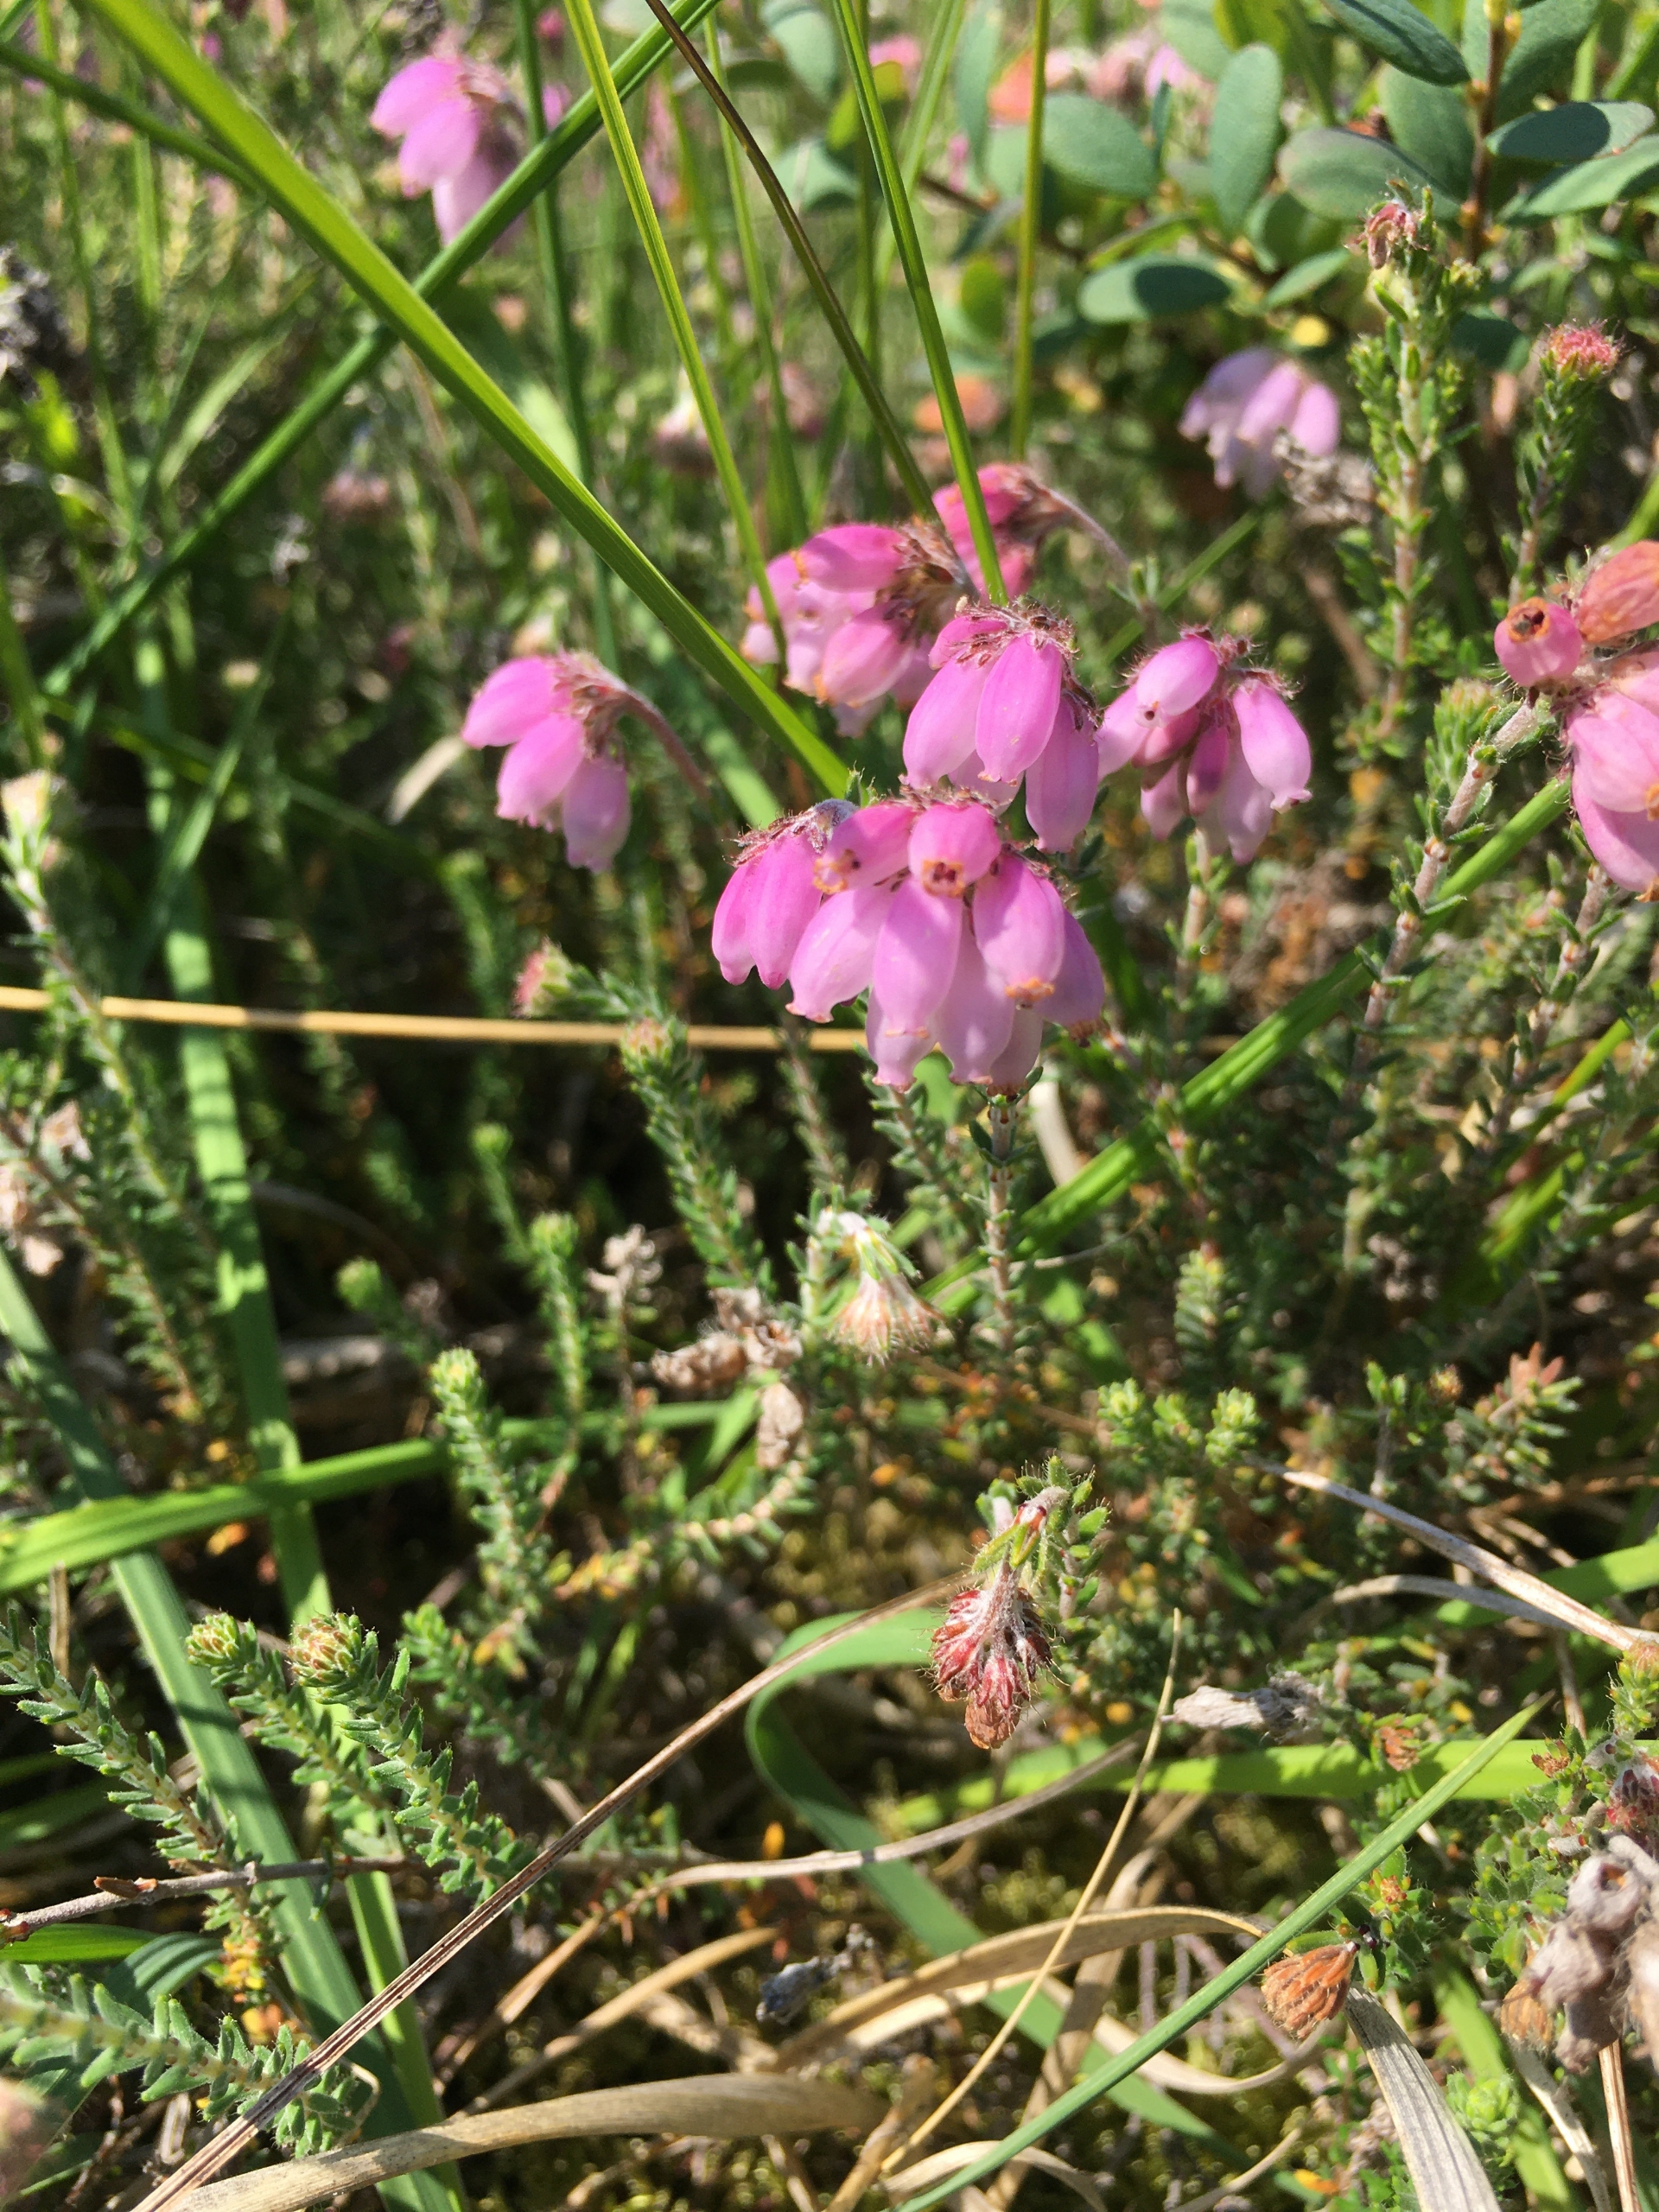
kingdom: Plantae
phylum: Tracheophyta
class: Magnoliopsida
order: Ericales
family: Ericaceae
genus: Erica
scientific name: Erica tetralix
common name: Klokkelyng
